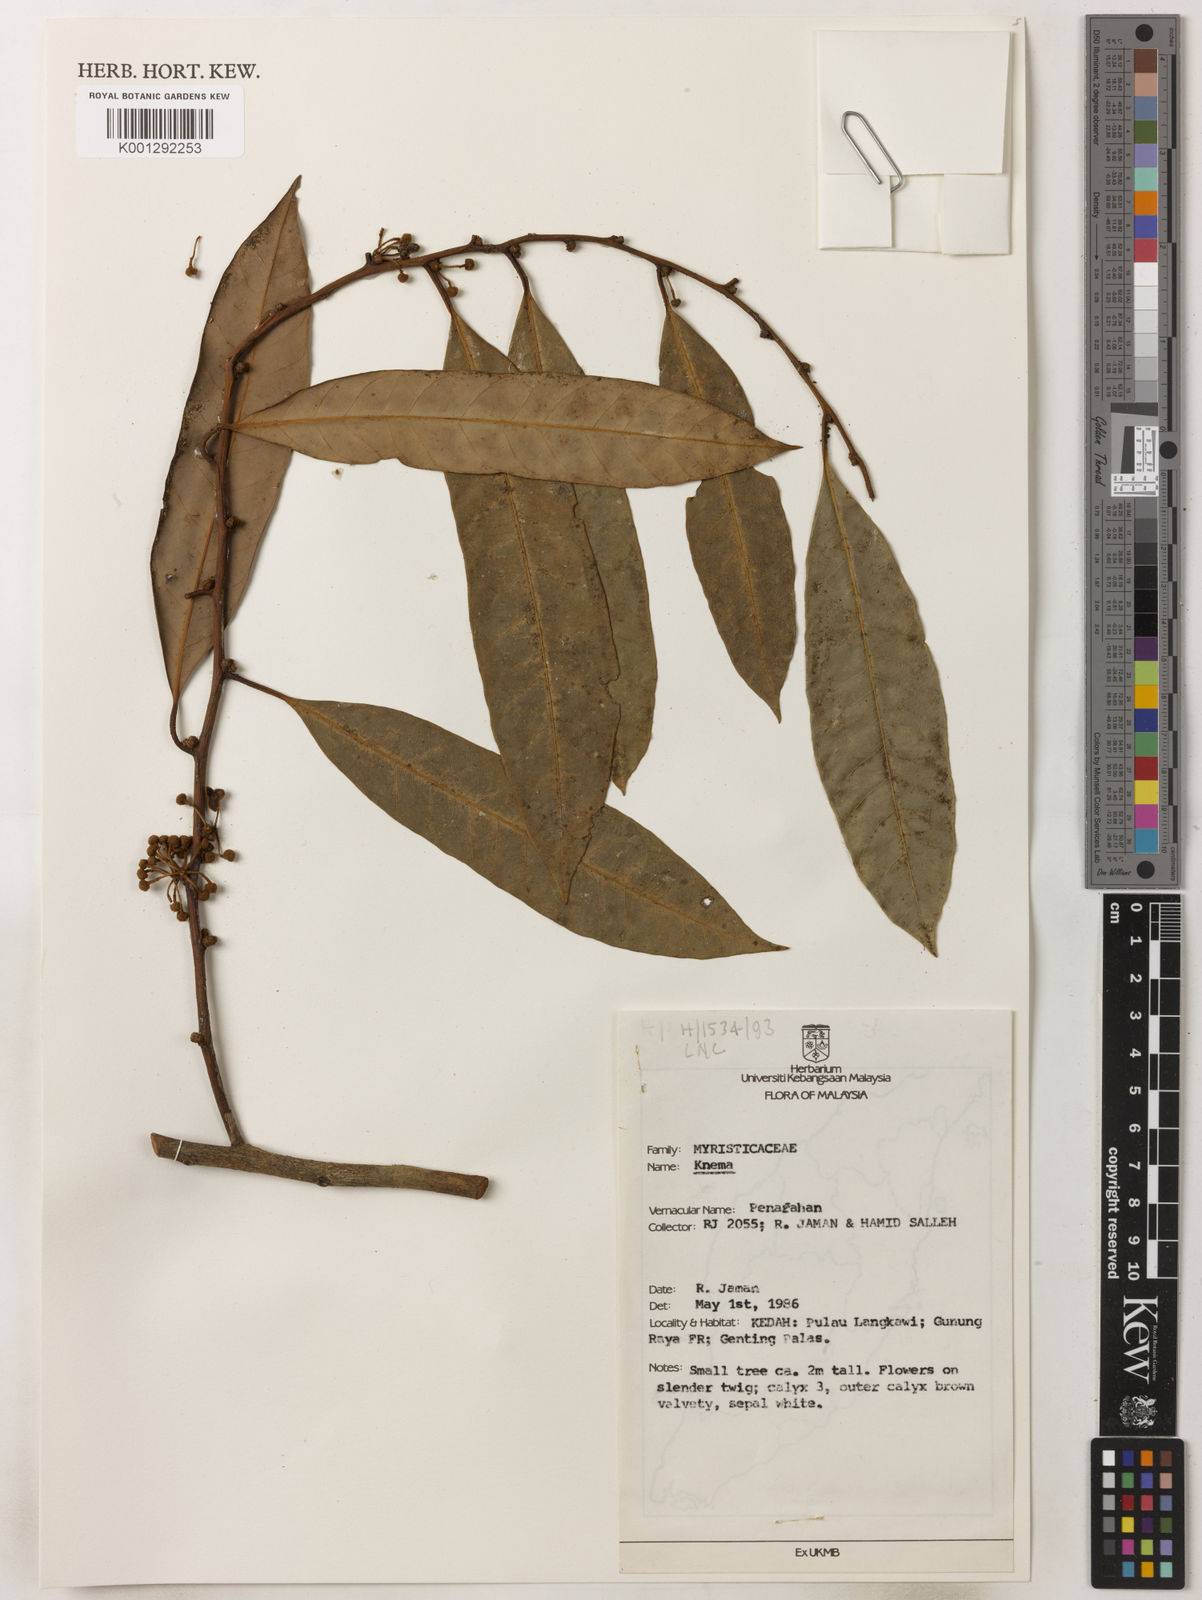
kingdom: Plantae
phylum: Tracheophyta
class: Magnoliopsida
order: Magnoliales
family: Myristicaceae
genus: Knema
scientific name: Knema
